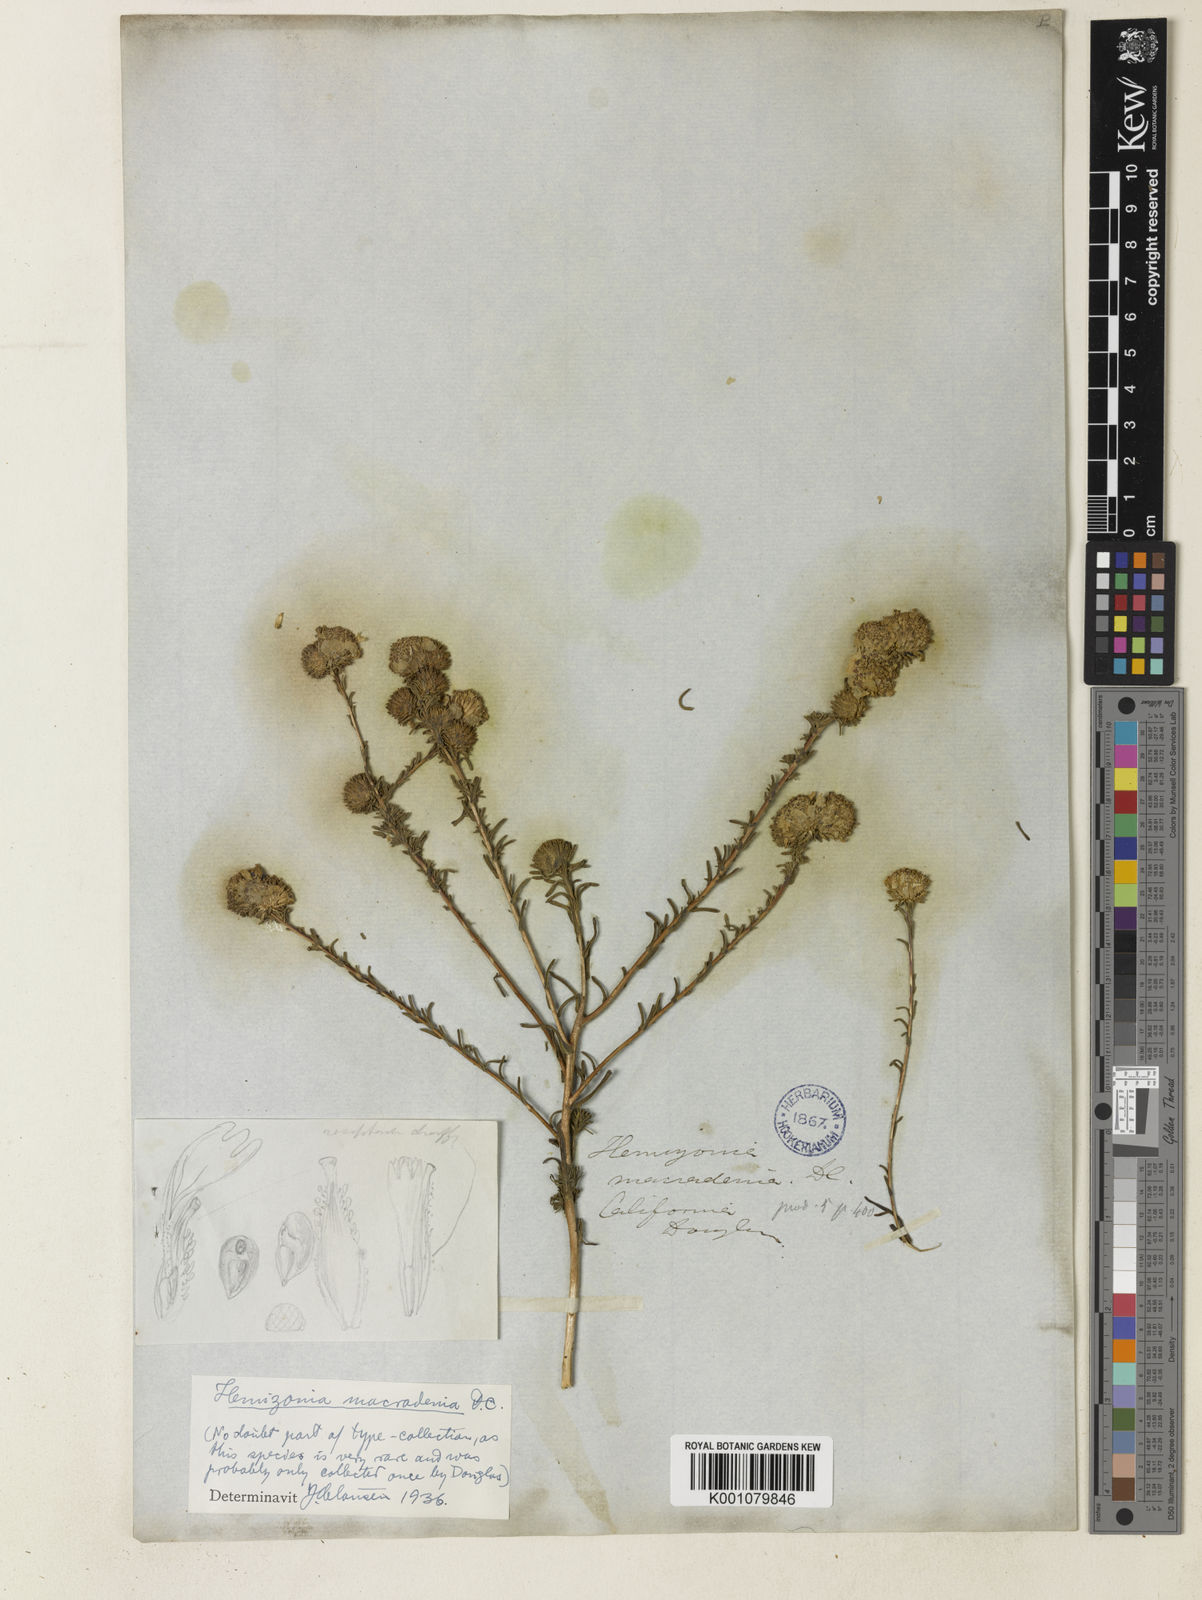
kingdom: Plantae
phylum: Tracheophyta
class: Magnoliopsida
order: Asterales
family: Asteraceae
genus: Holocarpha
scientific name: Holocarpha macradenia
